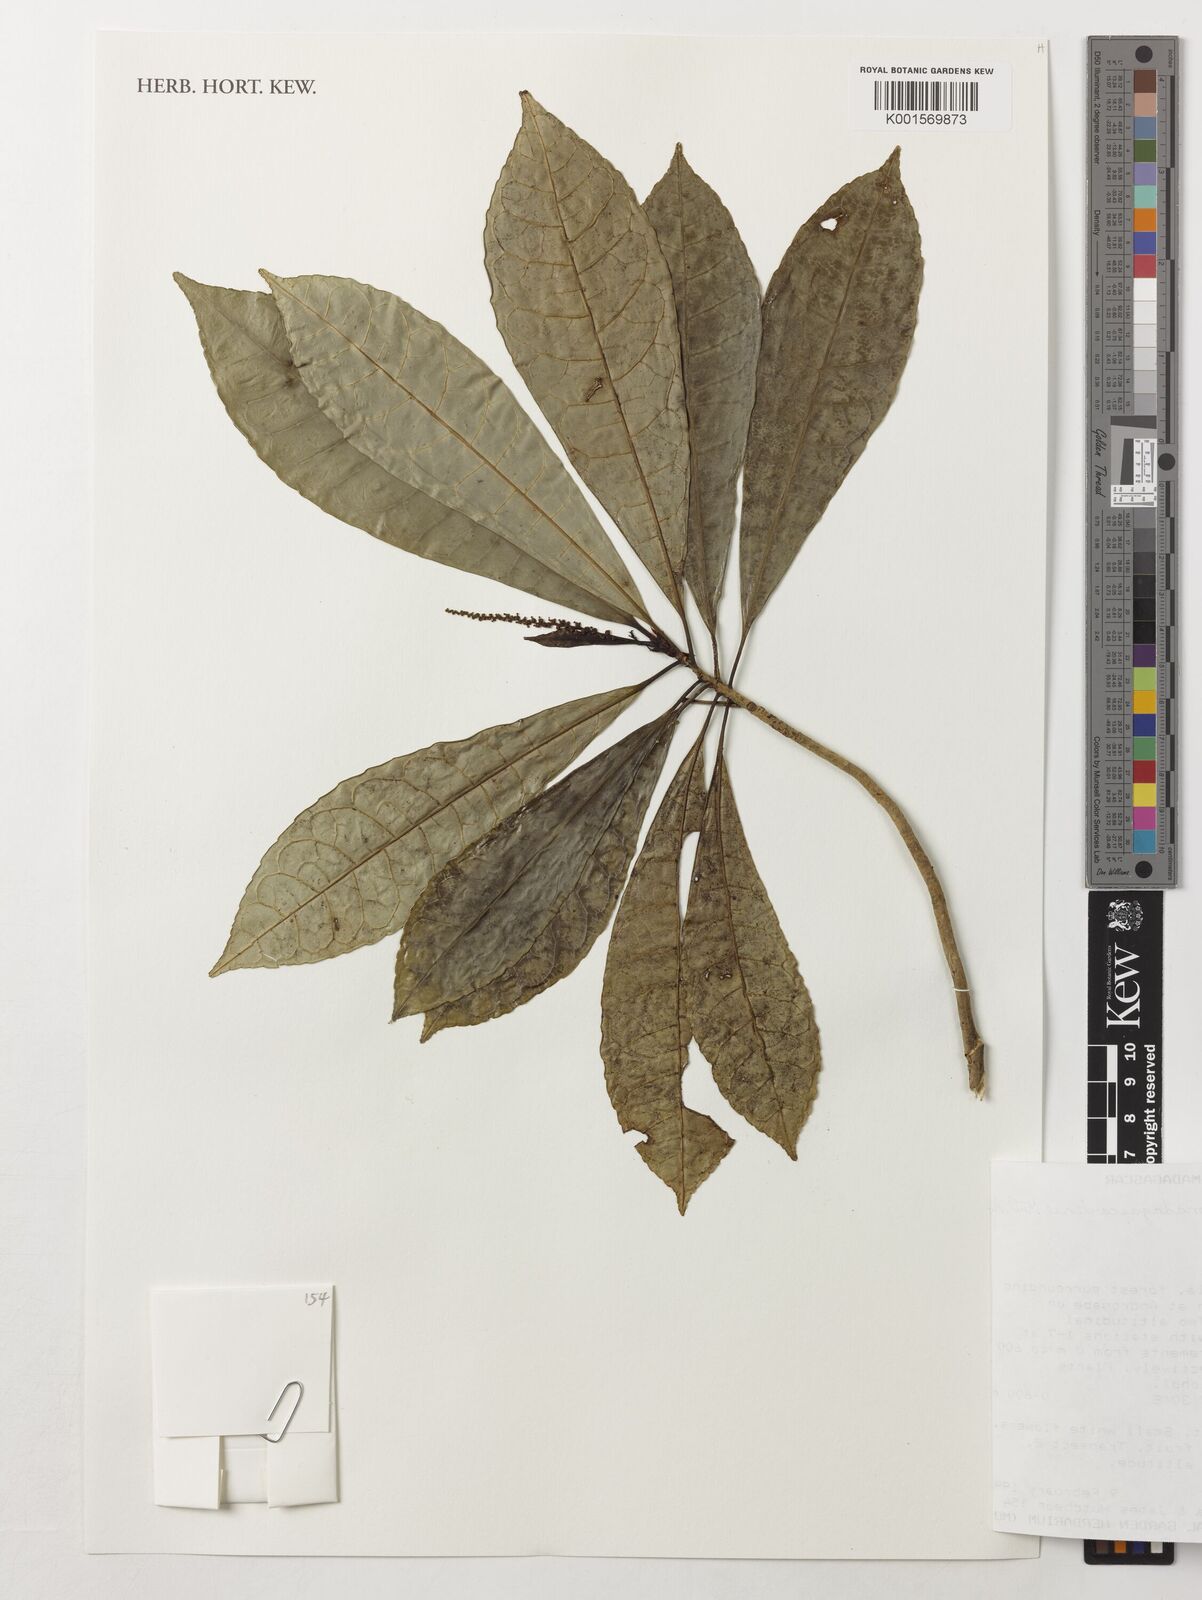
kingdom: Plantae
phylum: Tracheophyta
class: Magnoliopsida
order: Malpighiales
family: Euphorbiaceae
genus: Conosapium
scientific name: Conosapium madagascariense
